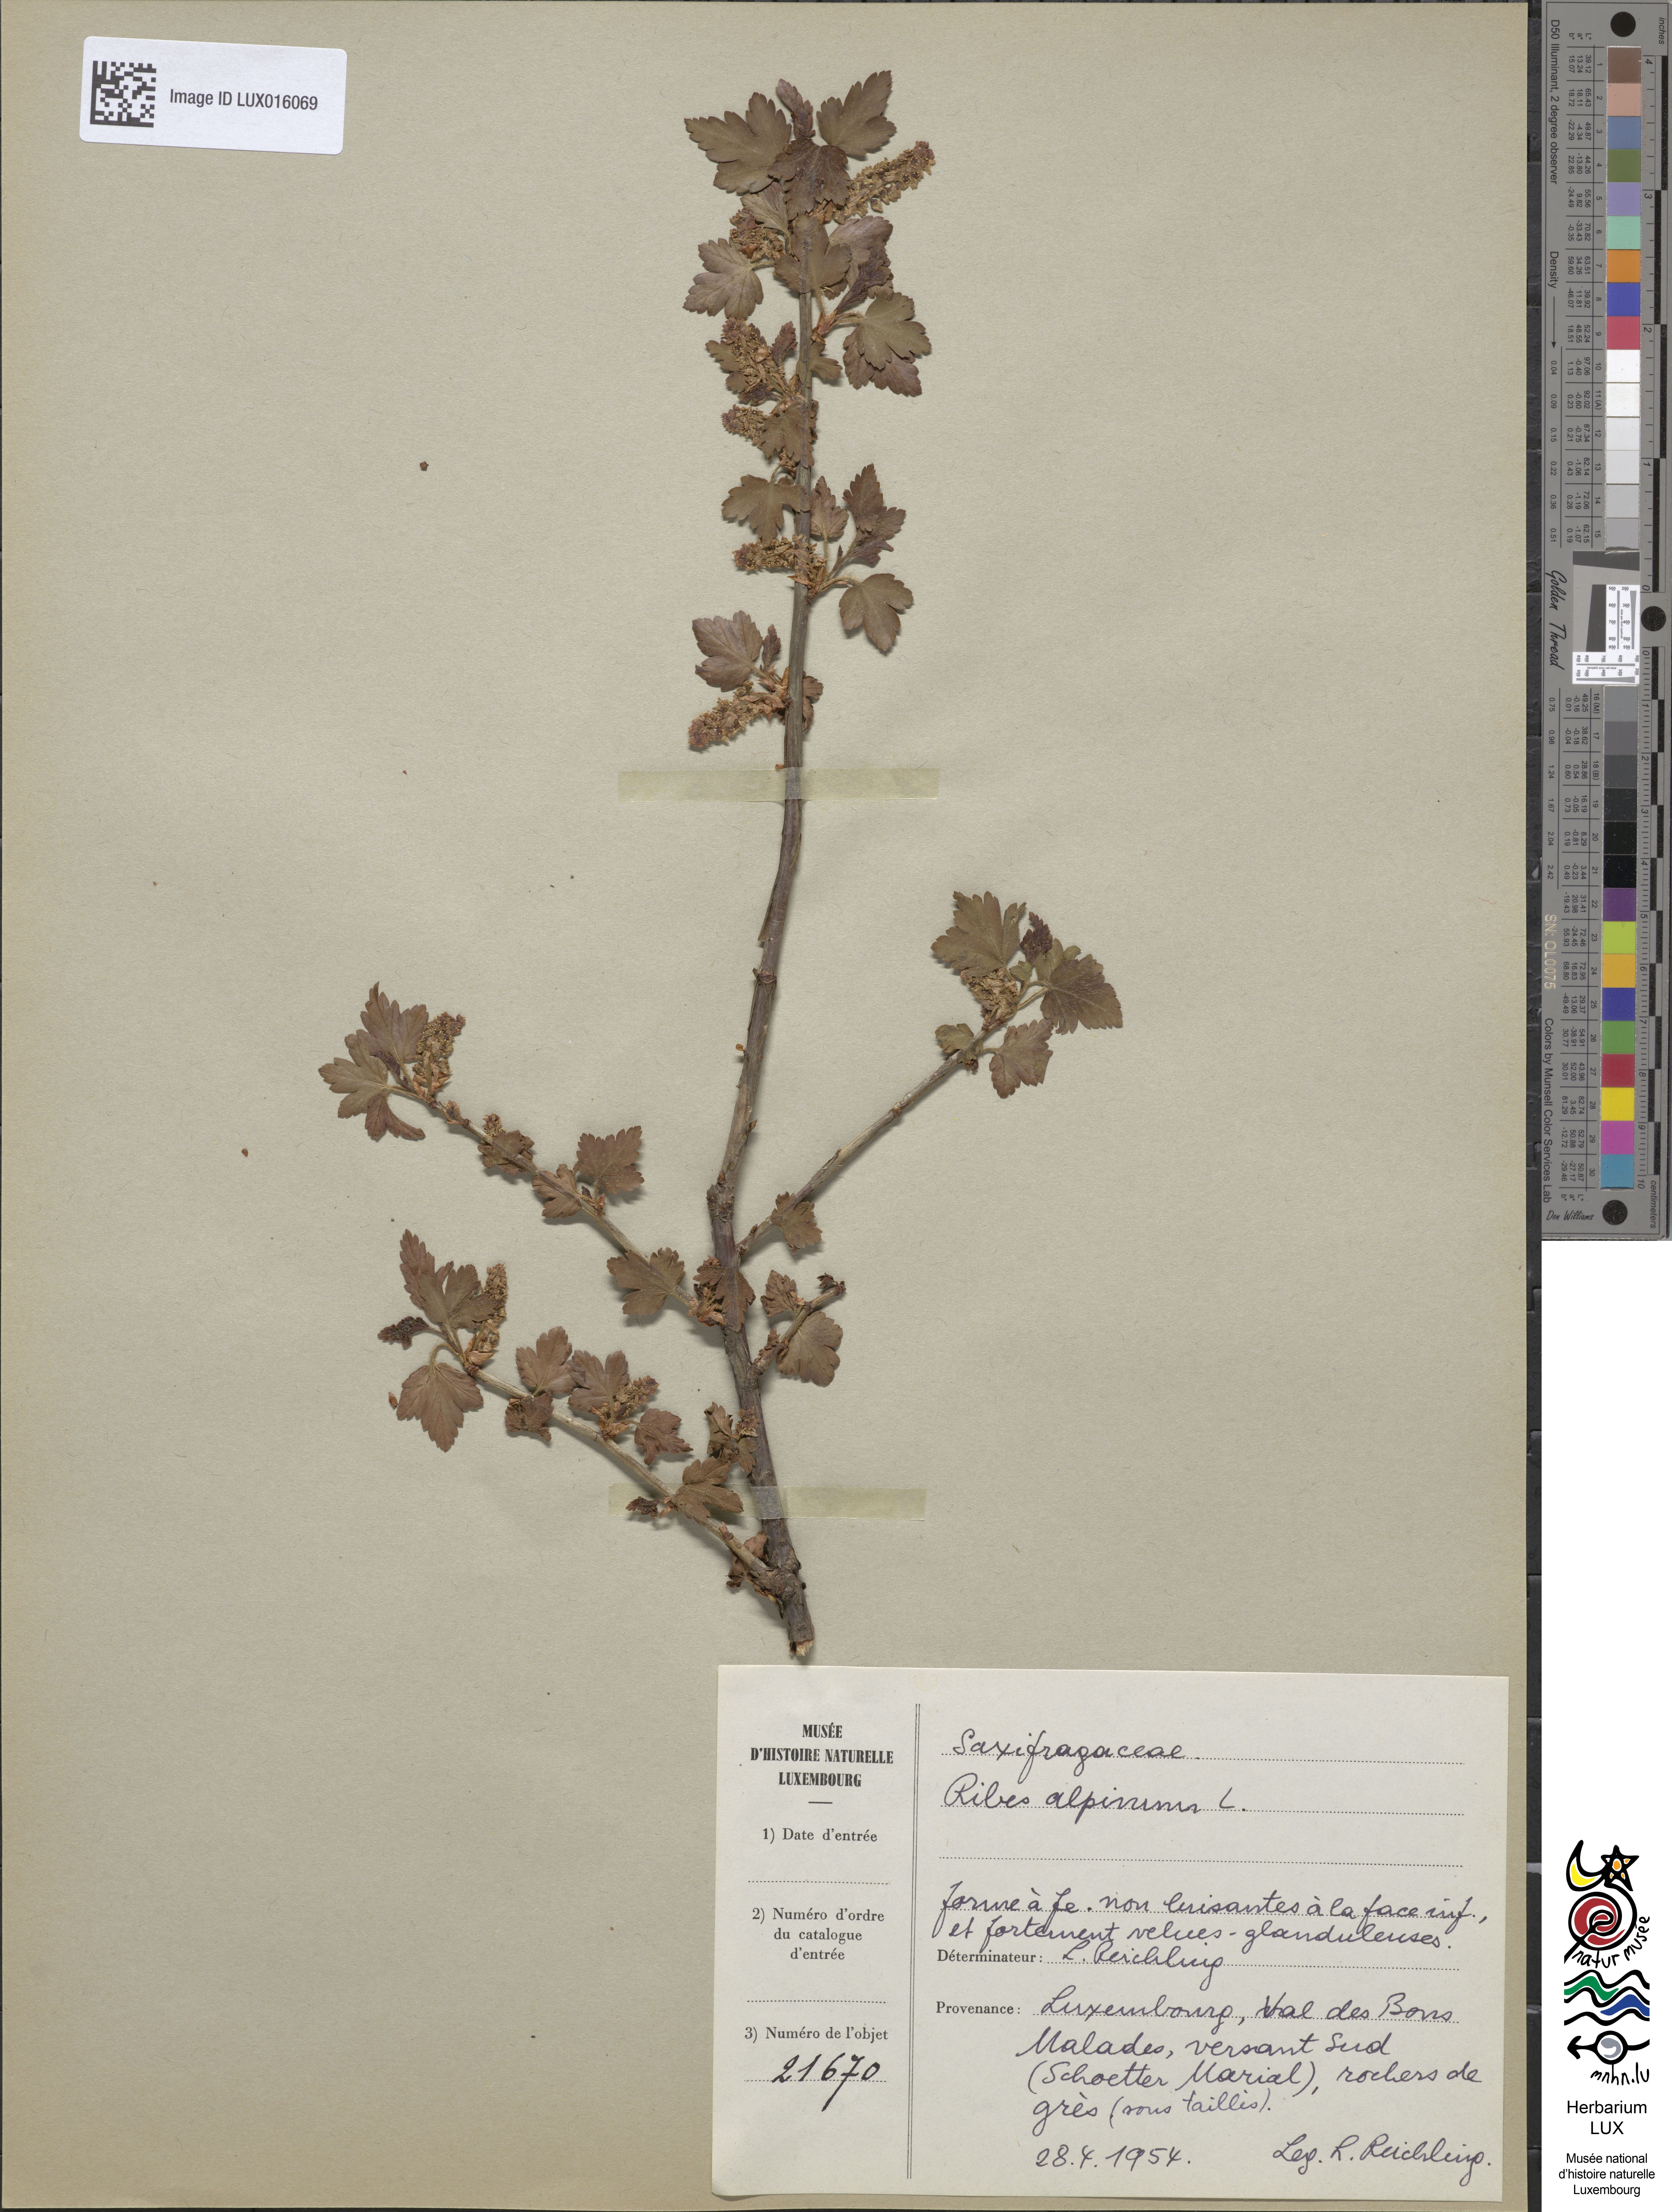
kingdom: Plantae
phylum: Tracheophyta
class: Magnoliopsida
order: Saxifragales
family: Grossulariaceae
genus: Ribes
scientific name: Ribes alpinum
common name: Alpine currant
